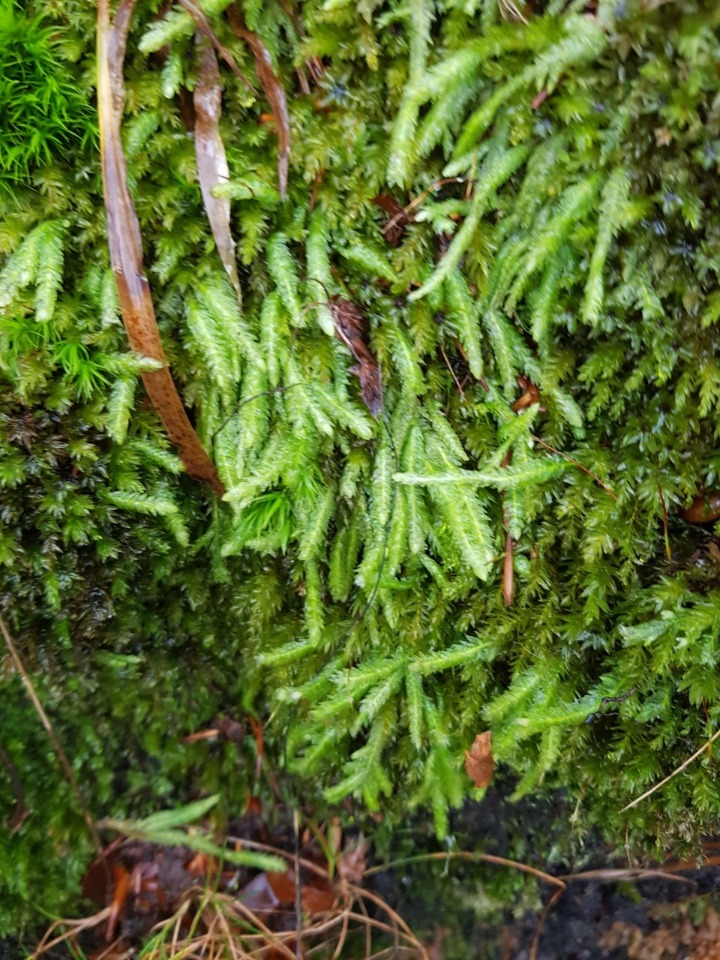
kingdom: Plantae
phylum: Bryophyta
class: Bryopsida
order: Hypnales
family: Plagiotheciaceae
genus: Plagiothecium
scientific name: Plagiothecium undulatum
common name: Bølget tæppemos
